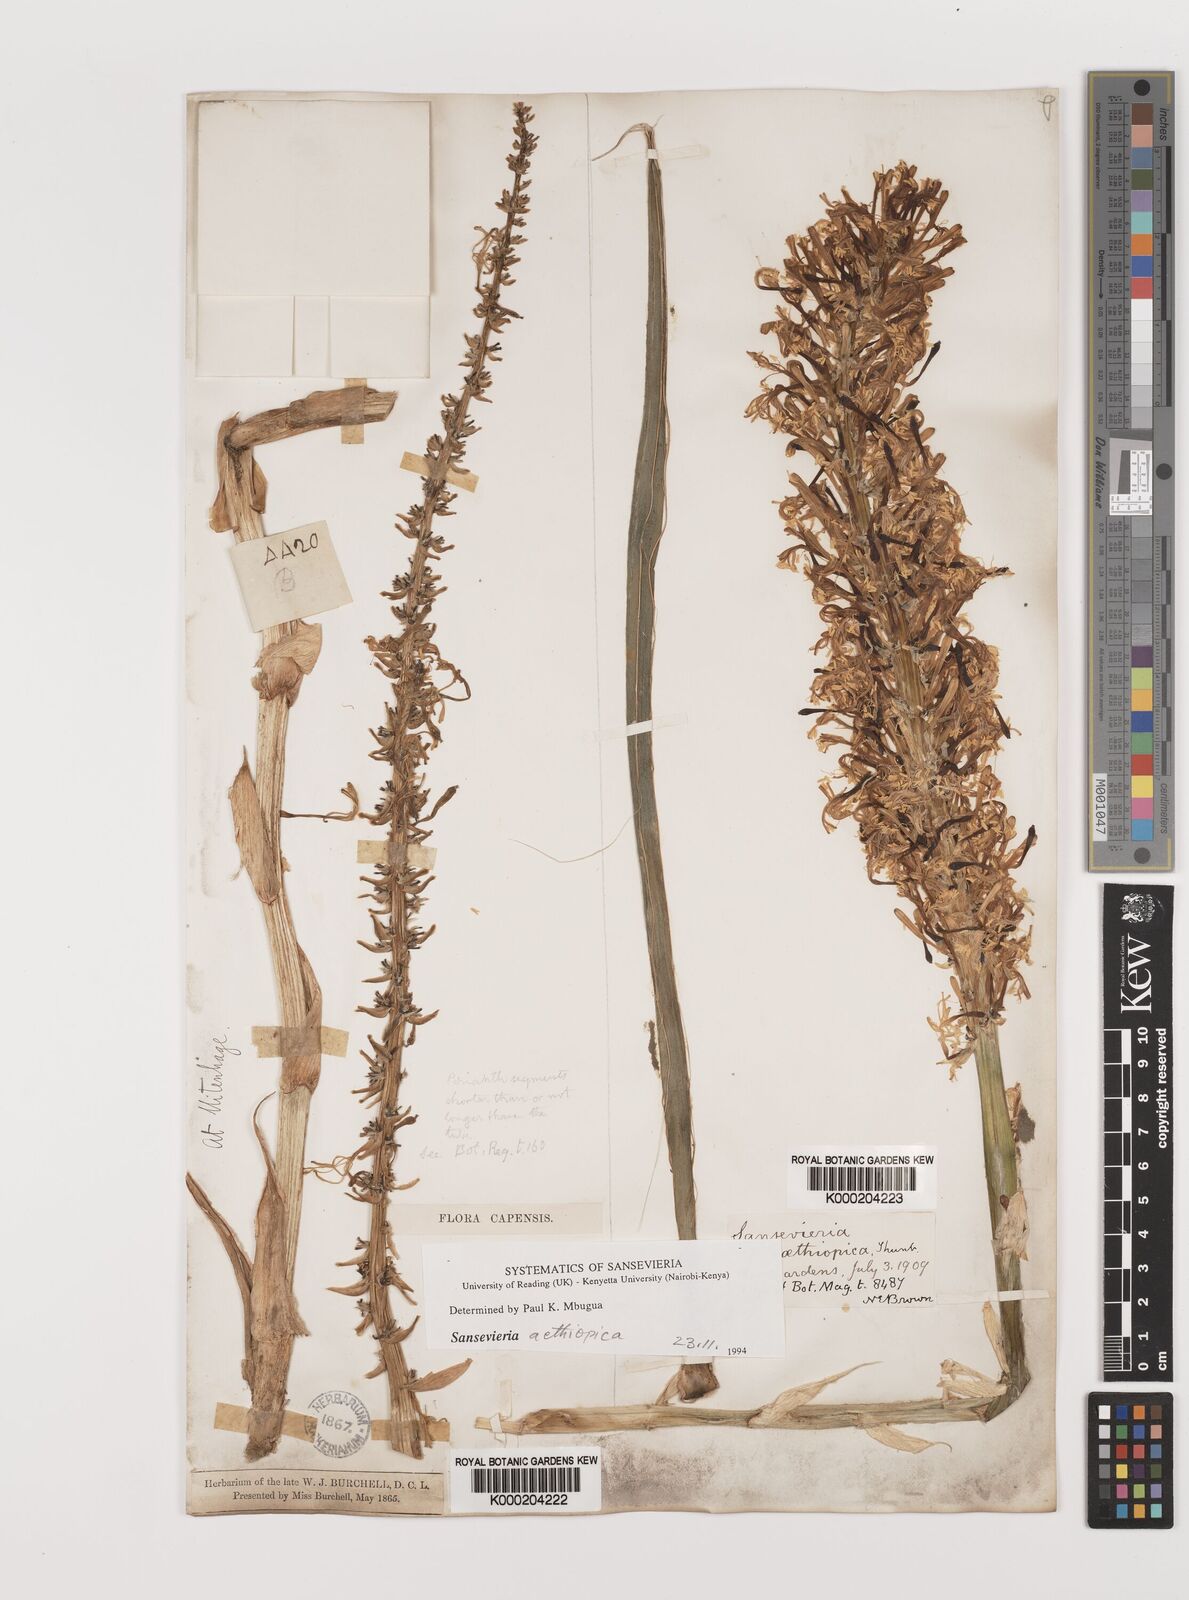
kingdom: Plantae
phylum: Tracheophyta
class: Liliopsida
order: Asparagales
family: Asparagaceae
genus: Dracaena
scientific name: Dracaena aethiopica
